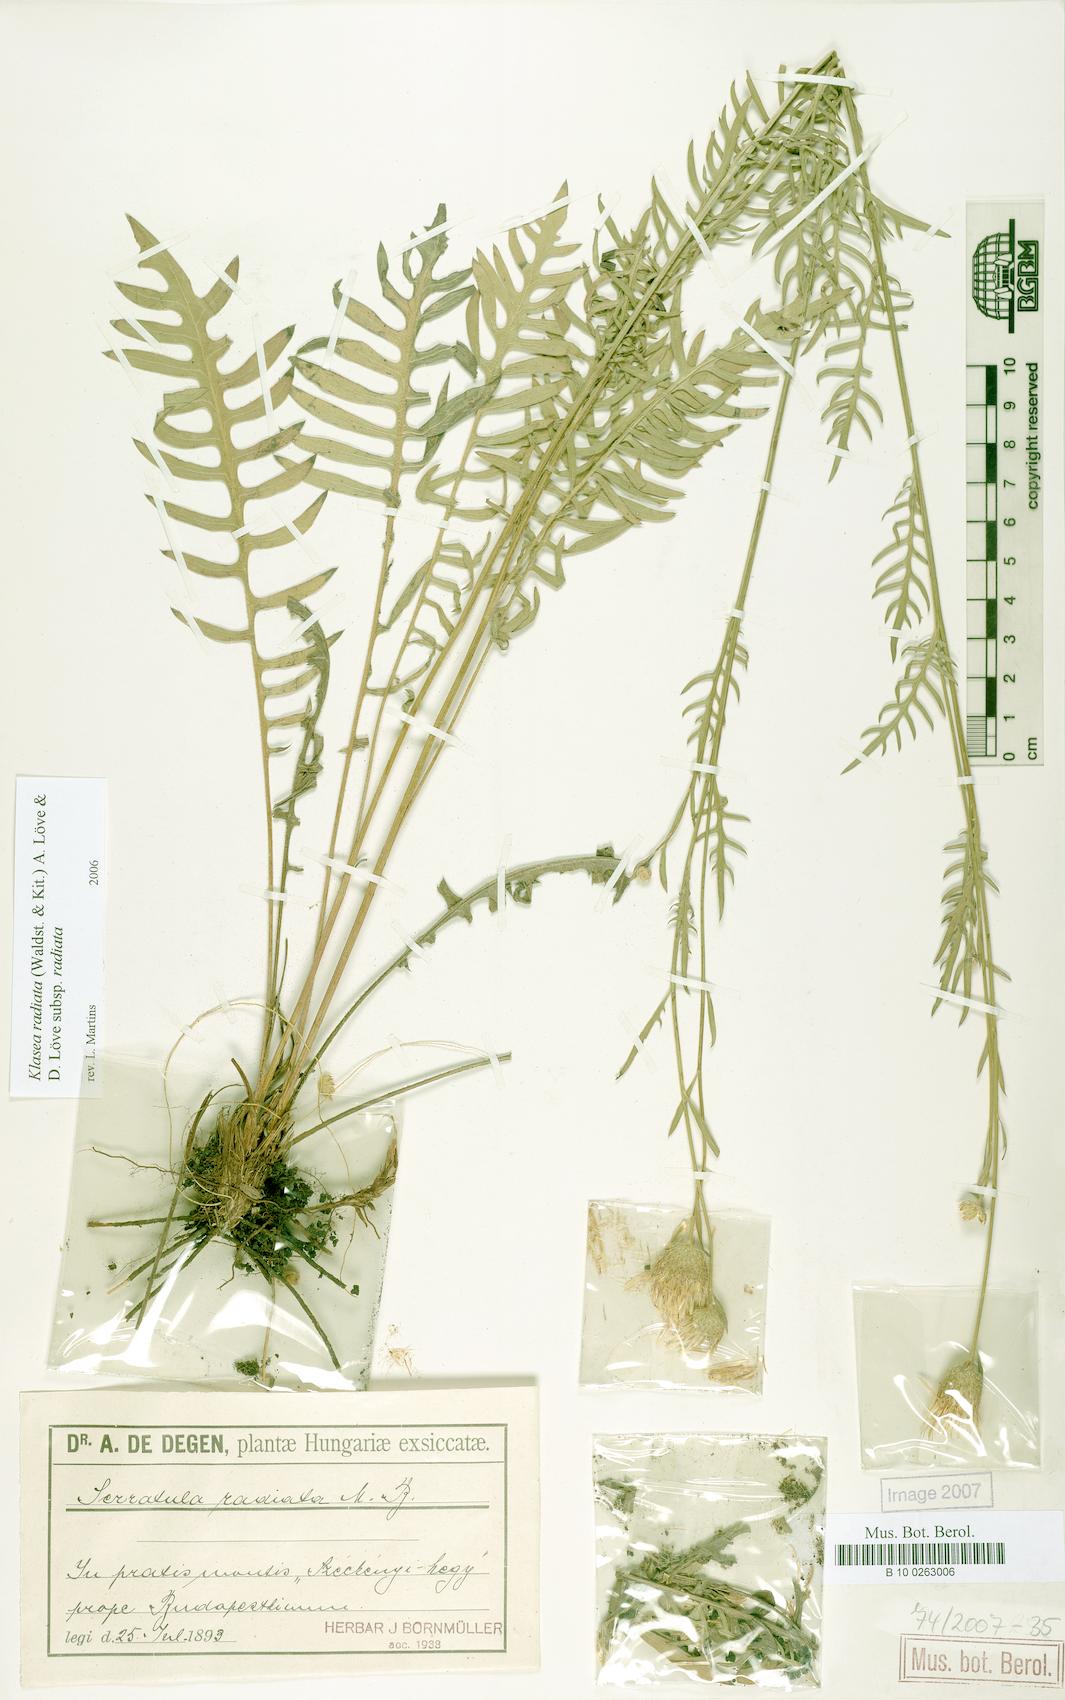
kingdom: Plantae
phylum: Tracheophyta
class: Magnoliopsida
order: Asterales
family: Asteraceae
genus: Klasea
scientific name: Klasea radiata
